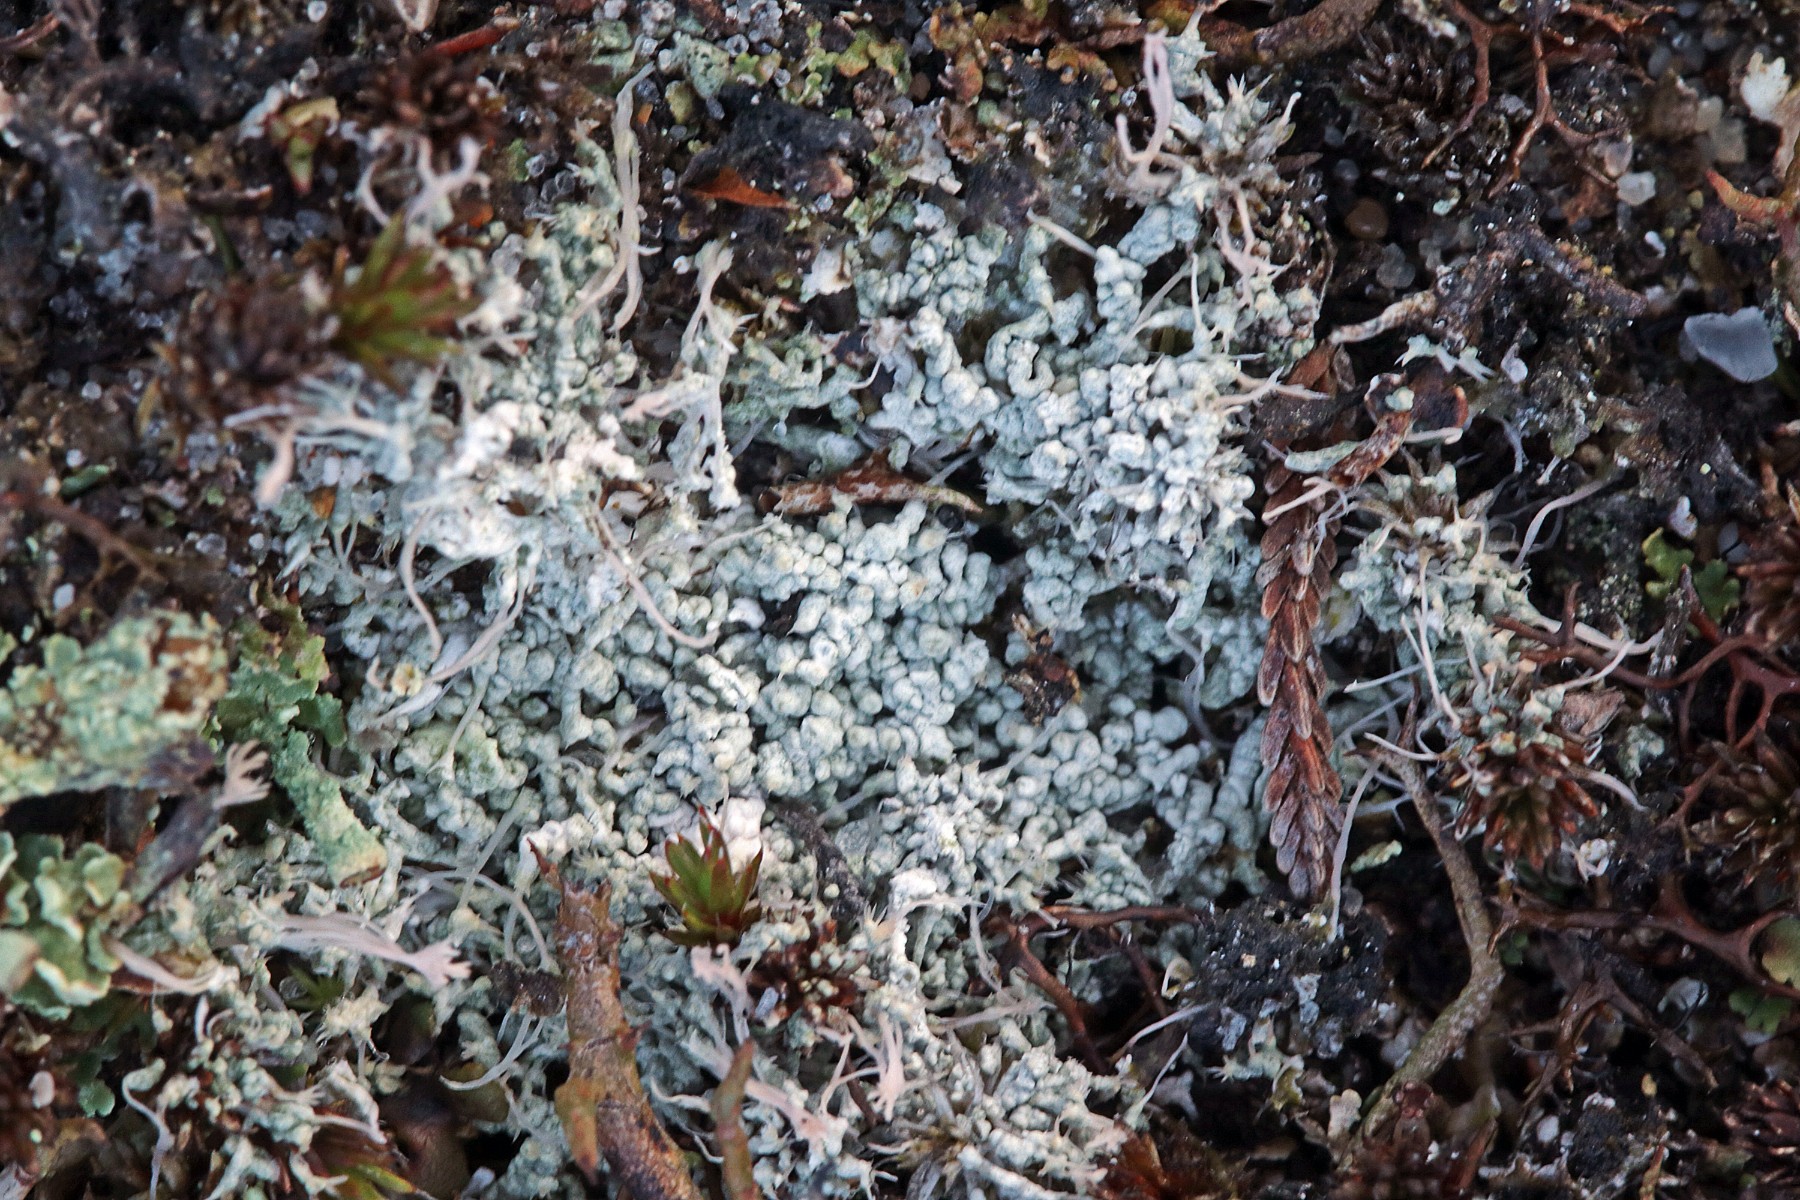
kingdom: Fungi
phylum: Ascomycota
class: Lecanoromycetes
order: Pertusariales
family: Ochrolechiaceae
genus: Ochrolechia
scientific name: Ochrolechia frigida
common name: fjeld-blegskivelav
